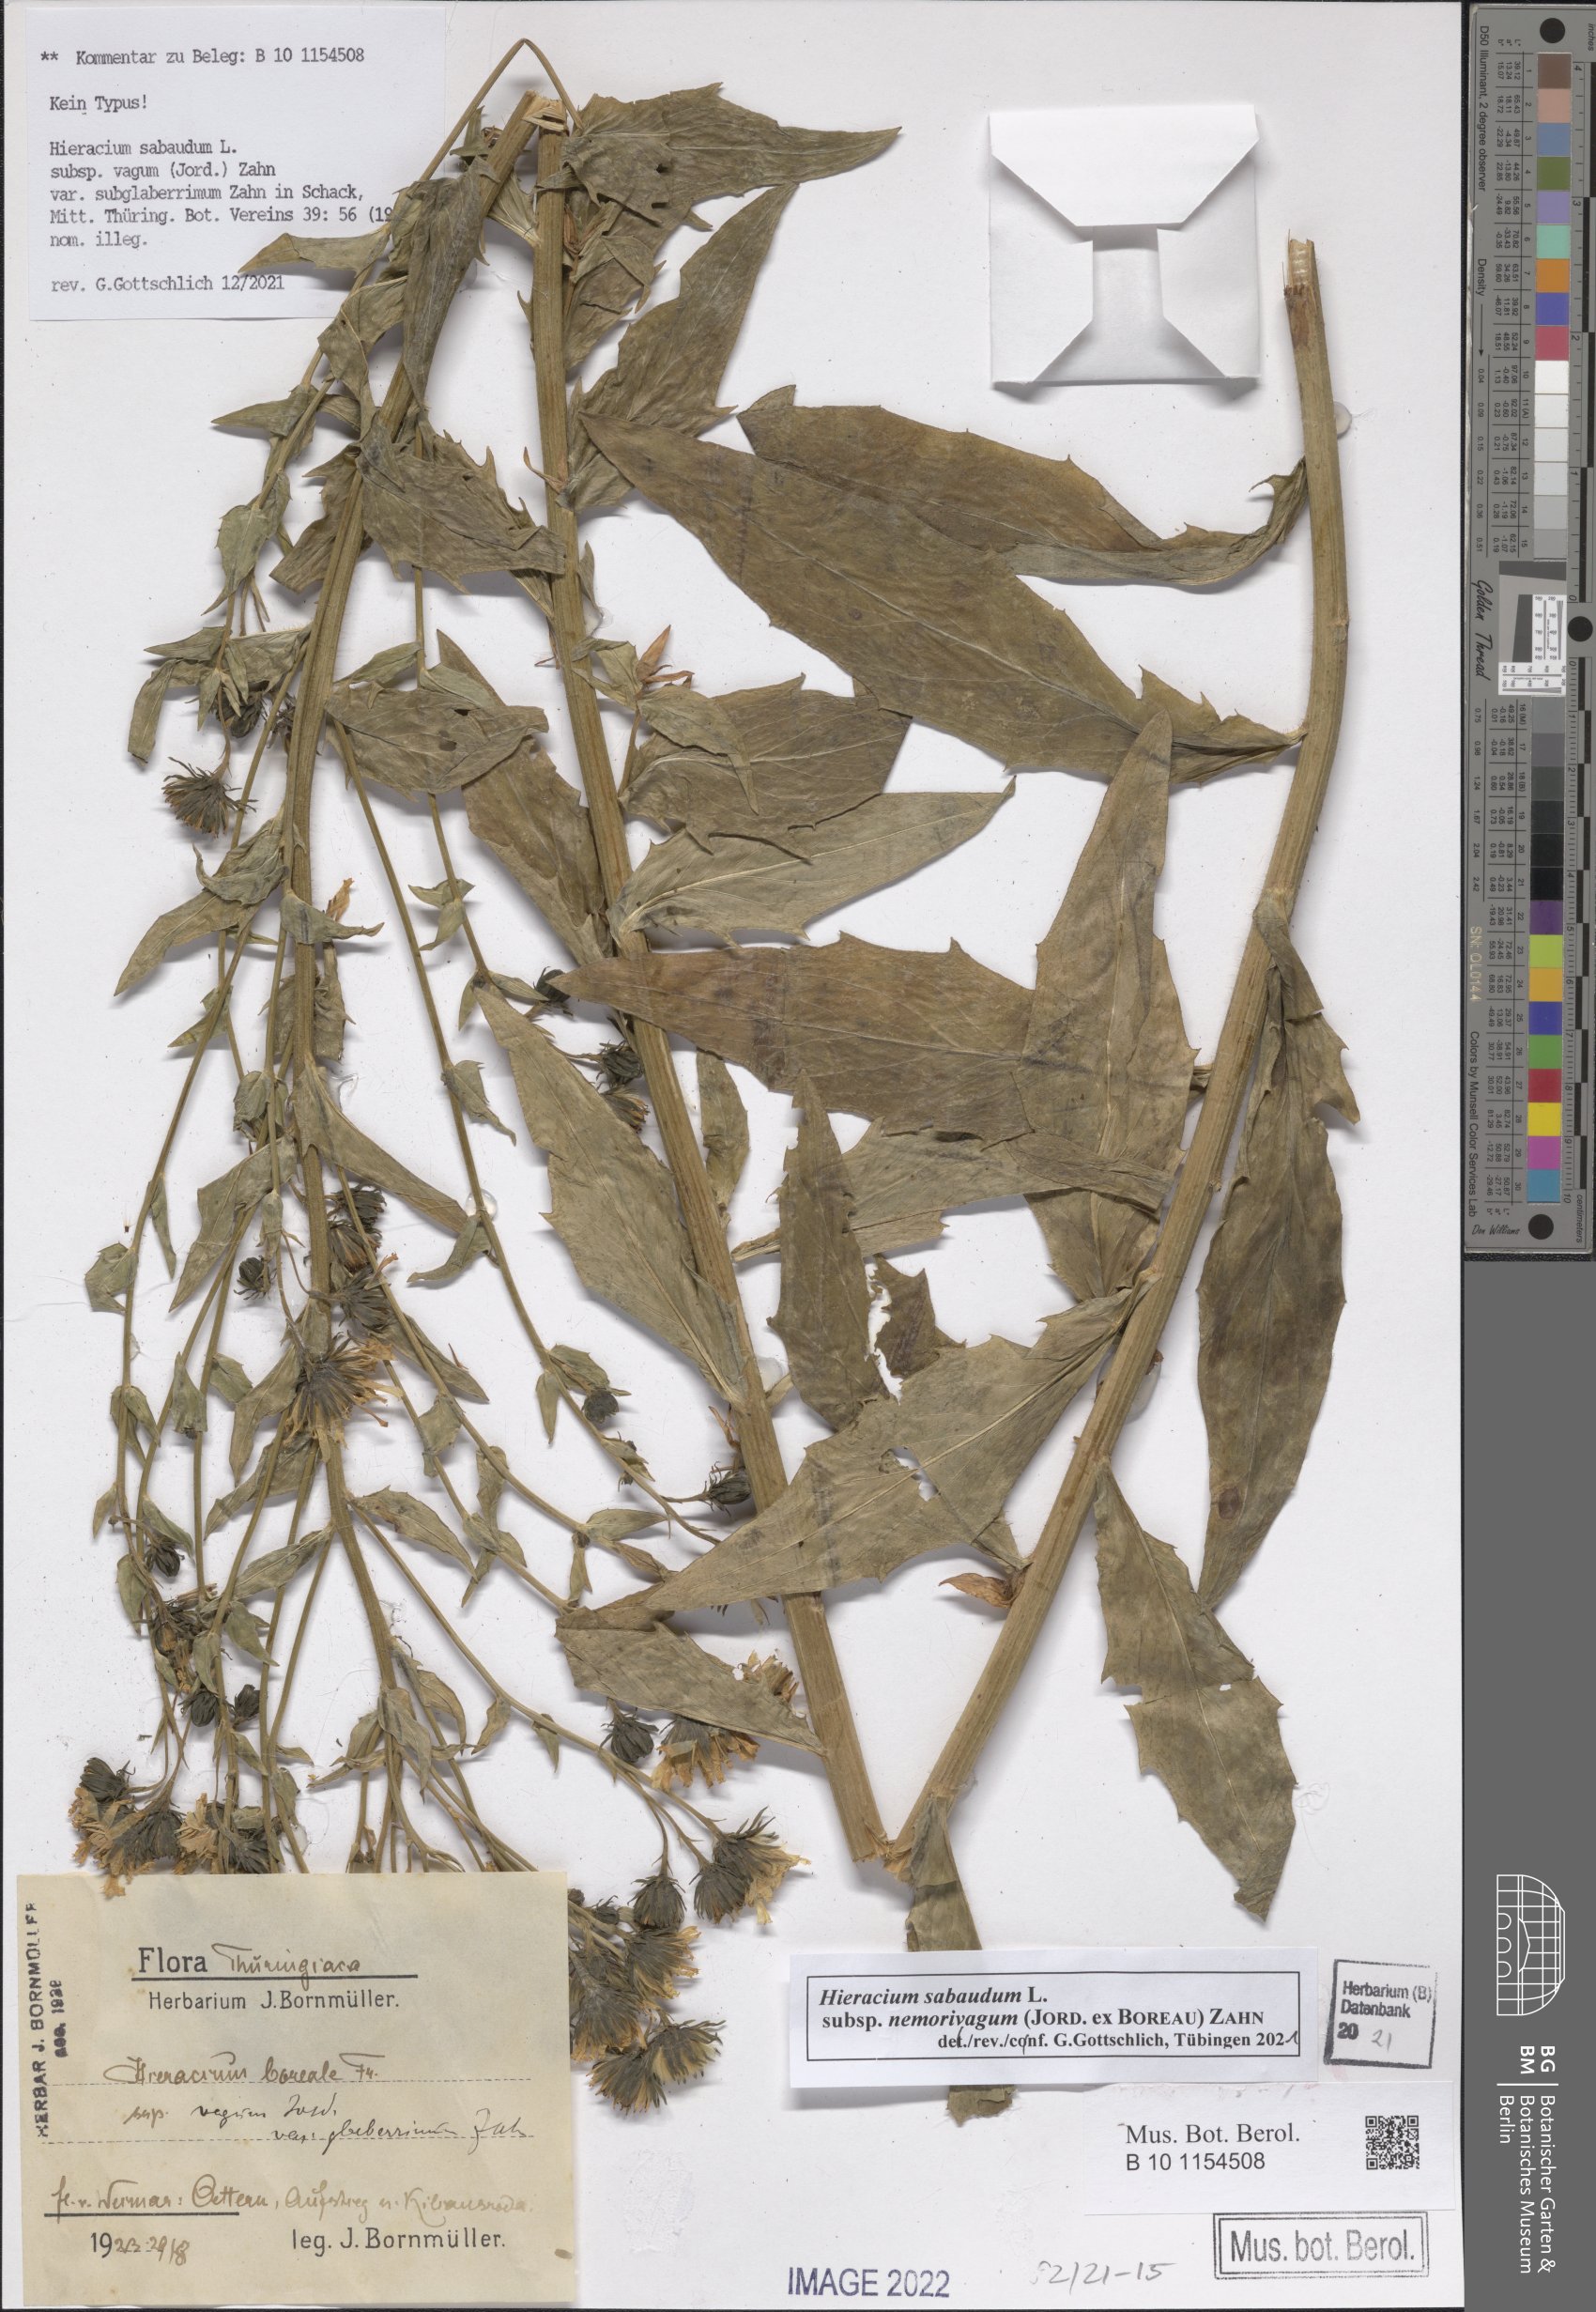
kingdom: Plantae
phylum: Tracheophyta
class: Magnoliopsida
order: Asterales
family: Asteraceae
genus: Hieracium
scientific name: Hieracium sabaudum
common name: New england hawkweed
